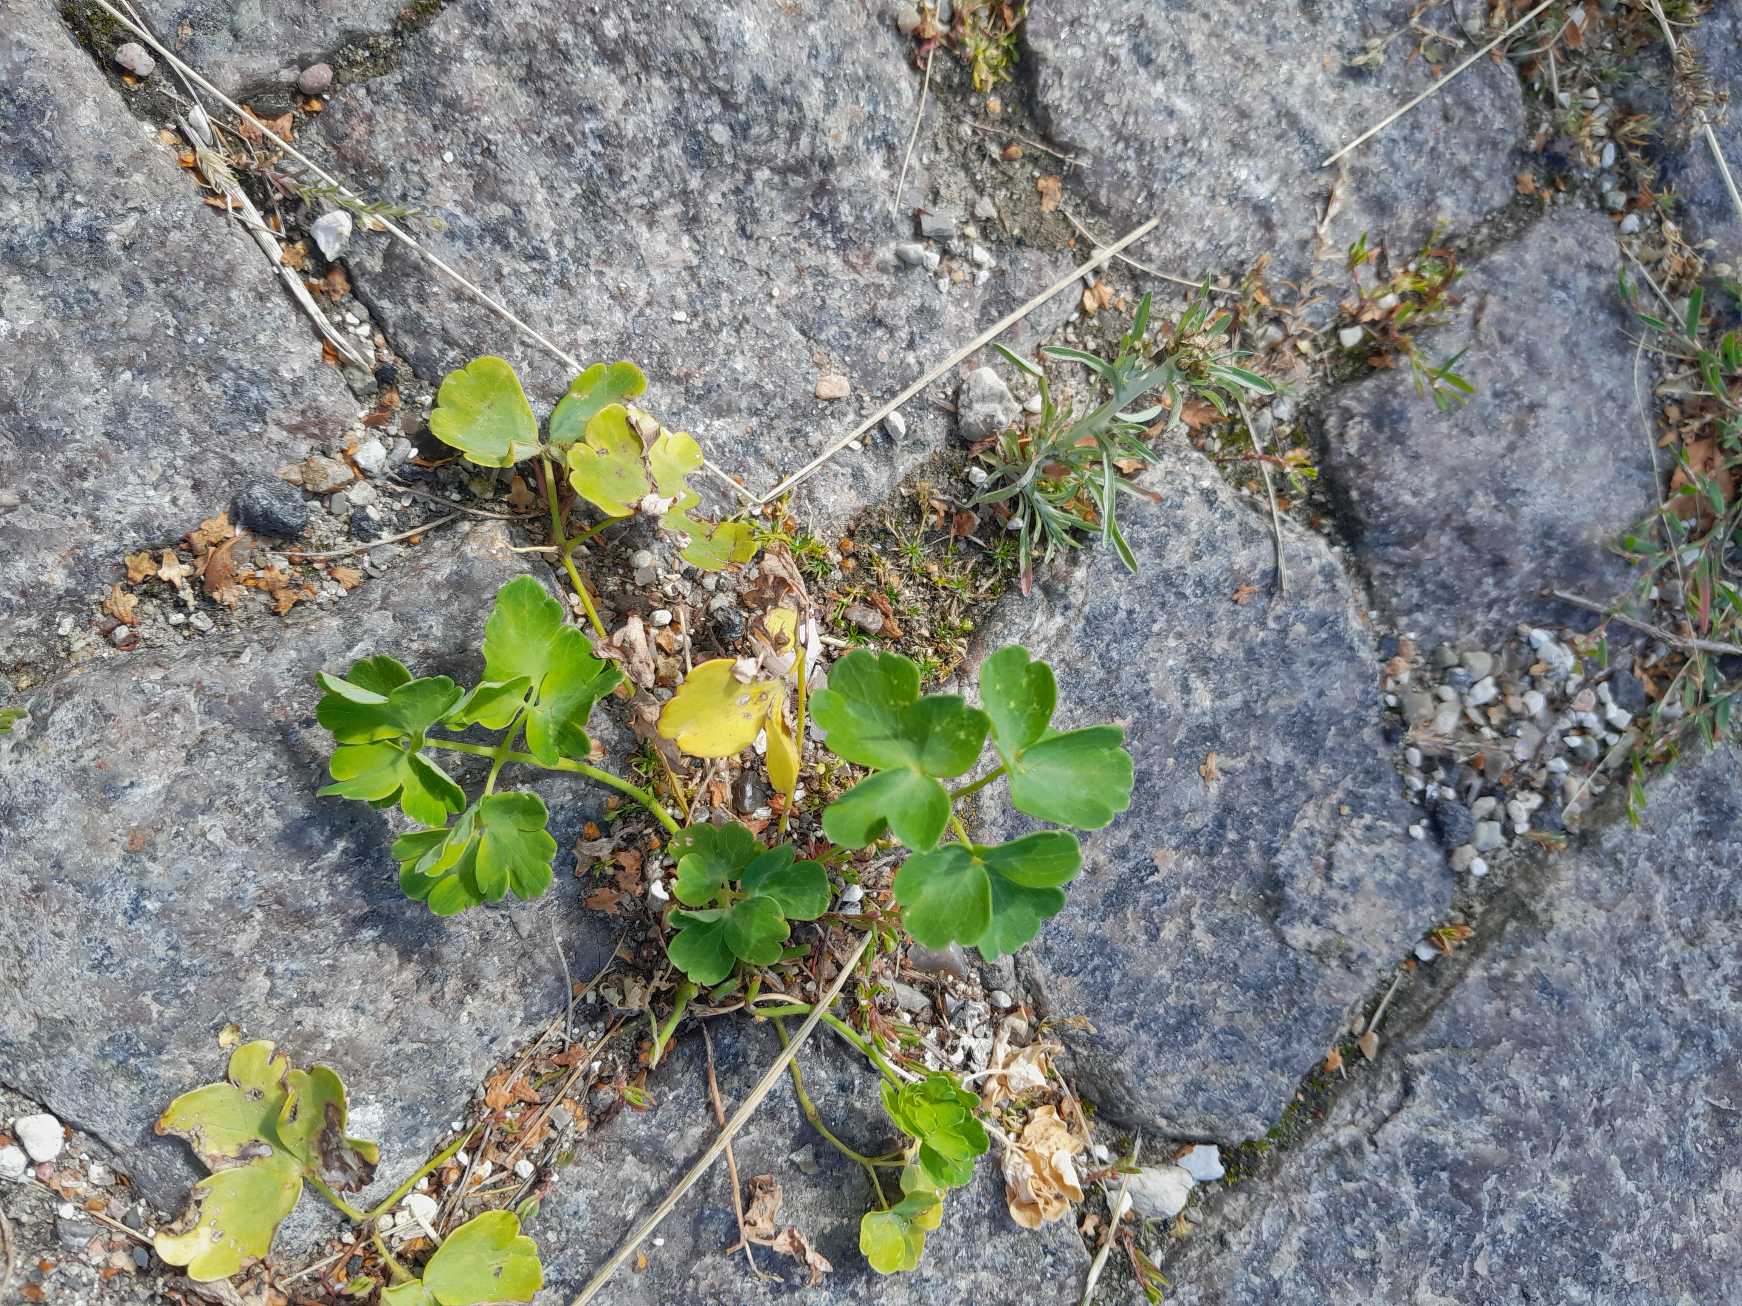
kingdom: Plantae
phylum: Tracheophyta
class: Magnoliopsida
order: Ranunculales
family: Ranunculaceae
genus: Aquilegia
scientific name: Aquilegia vulgaris
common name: Akeleje
